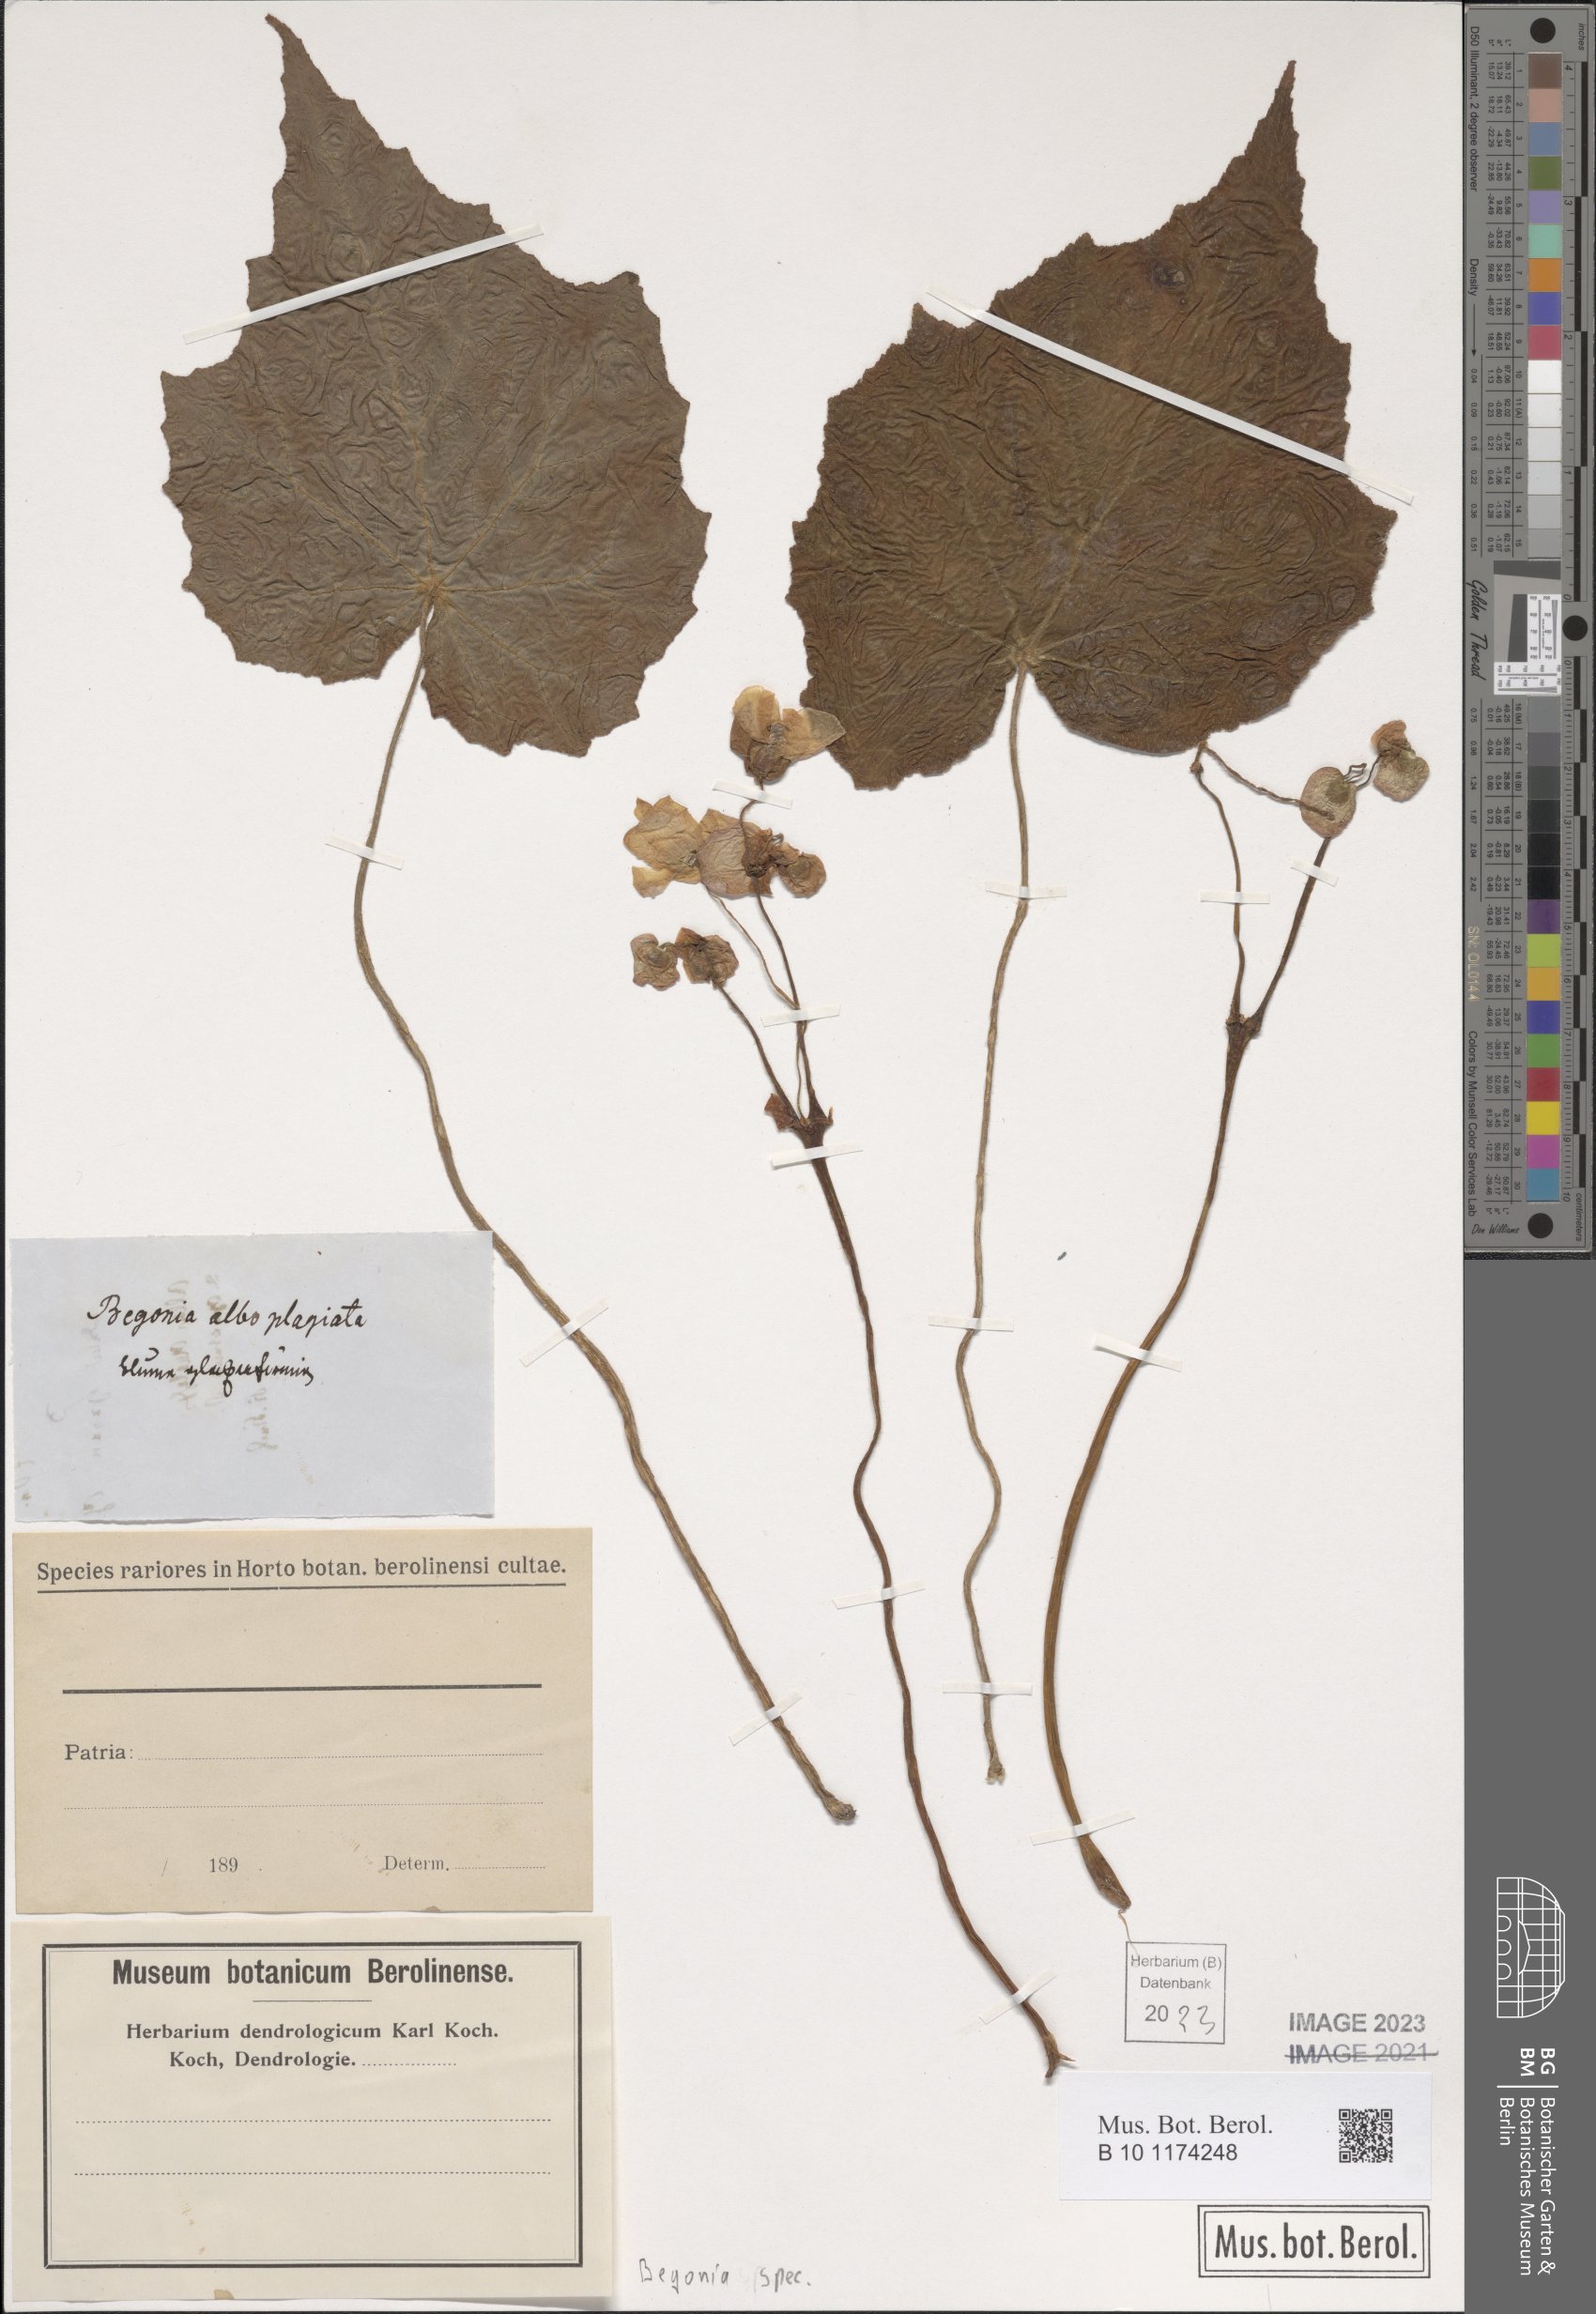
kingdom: Plantae
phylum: Tracheophyta
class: Magnoliopsida
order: Cucurbitales
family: Begoniaceae
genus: Begonia
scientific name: Begonia
